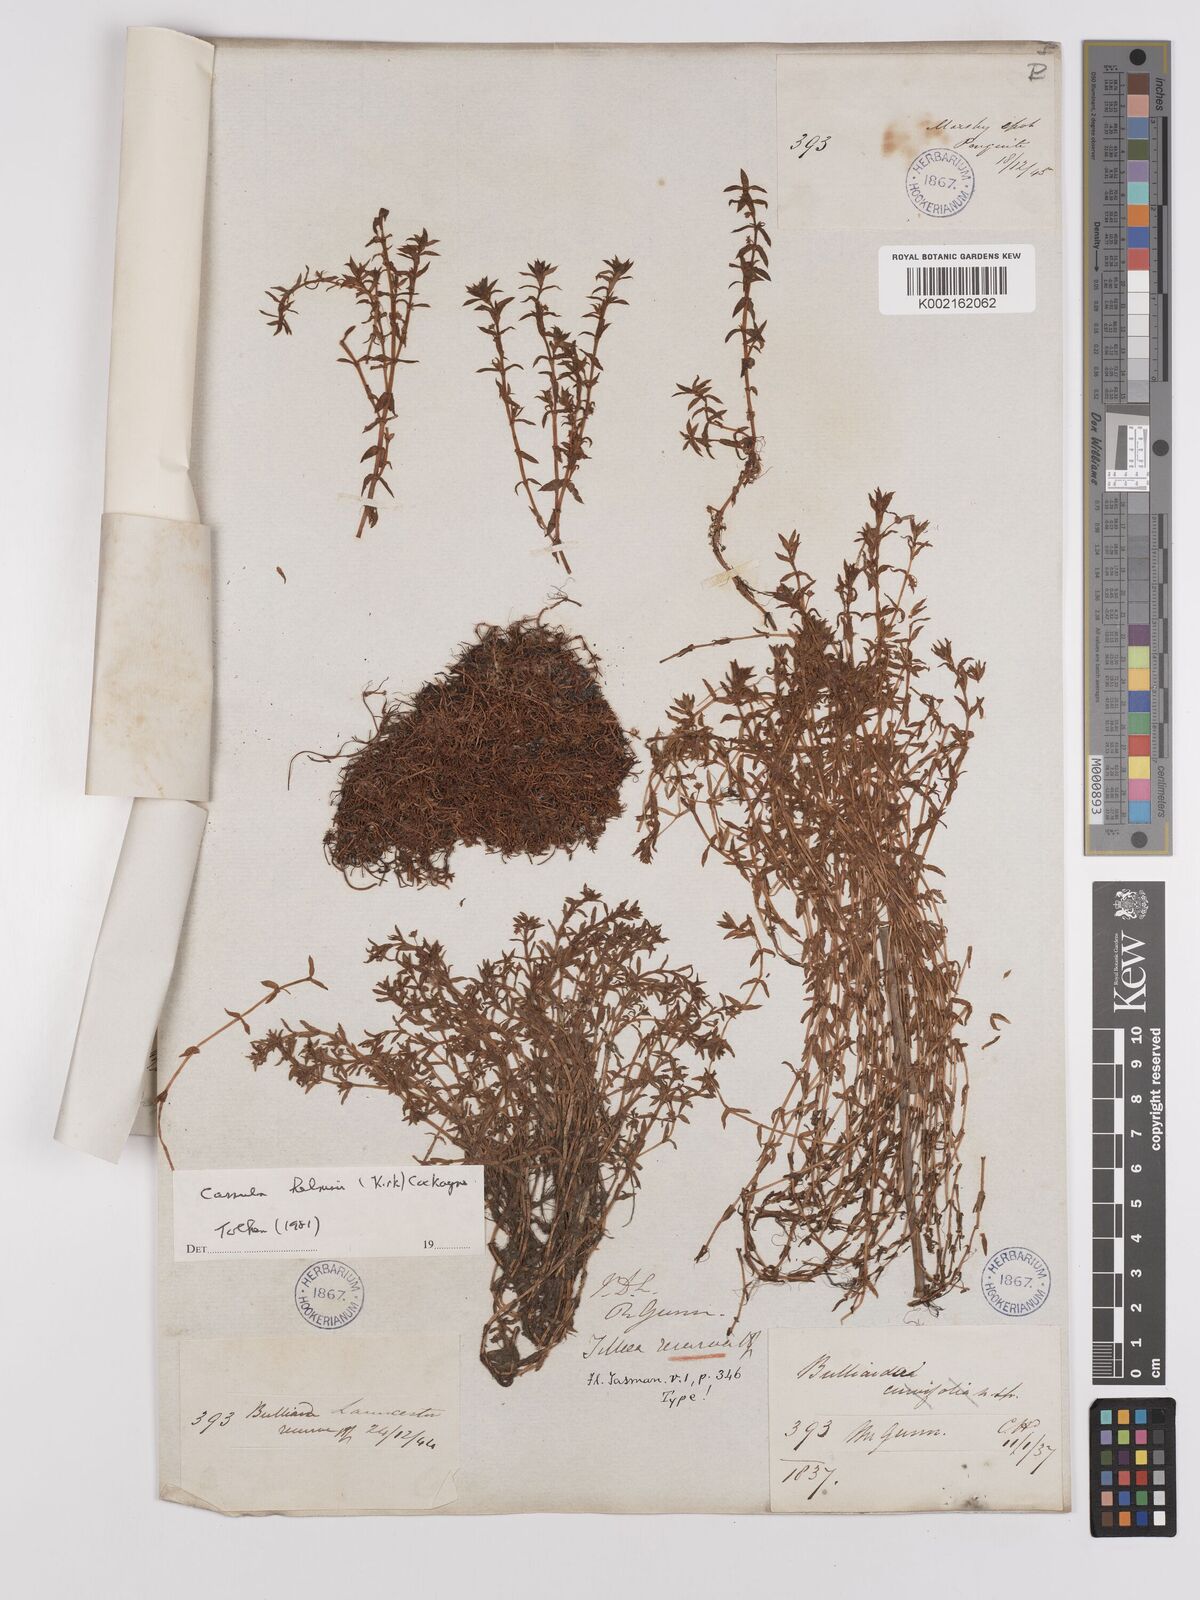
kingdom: Plantae
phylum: Tracheophyta
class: Magnoliopsida
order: Saxifragales
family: Crassulaceae
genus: Crassula
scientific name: Crassula helmsii
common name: New zealand pigmyweed
